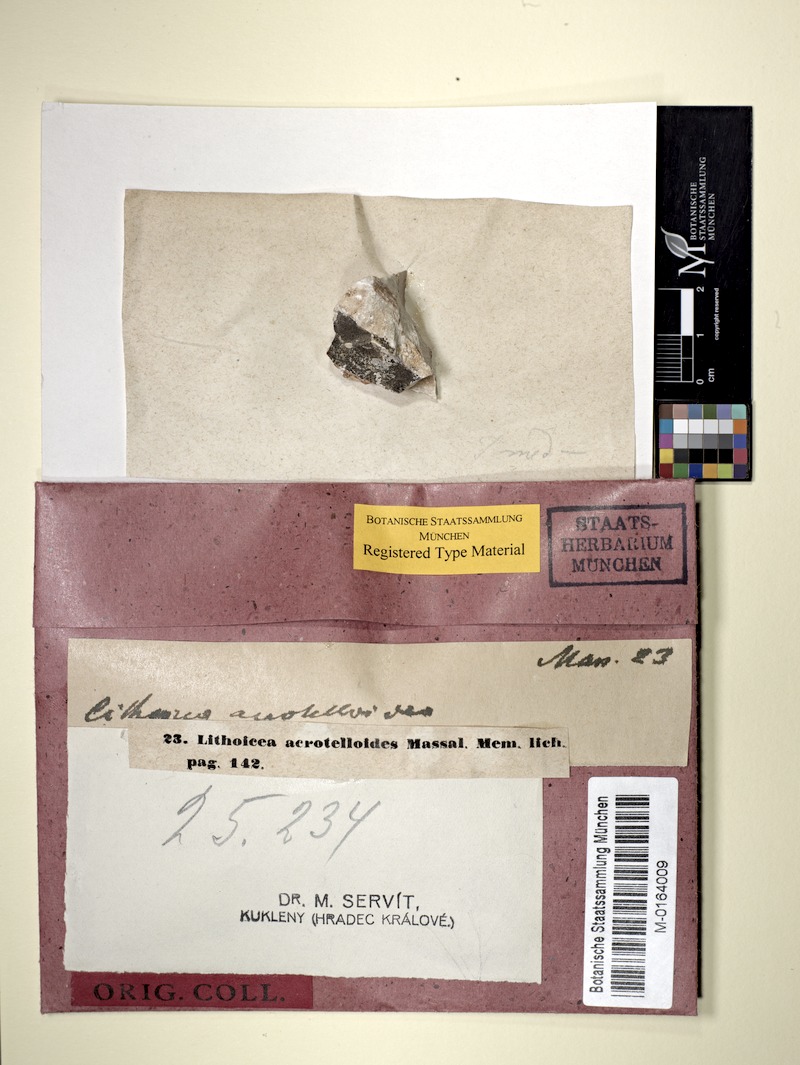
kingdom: Fungi
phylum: Ascomycota
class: Eurotiomycetes
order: Verrucariales
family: Verrucariaceae
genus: Verrucaria
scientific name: Verrucaria acrotelloides
